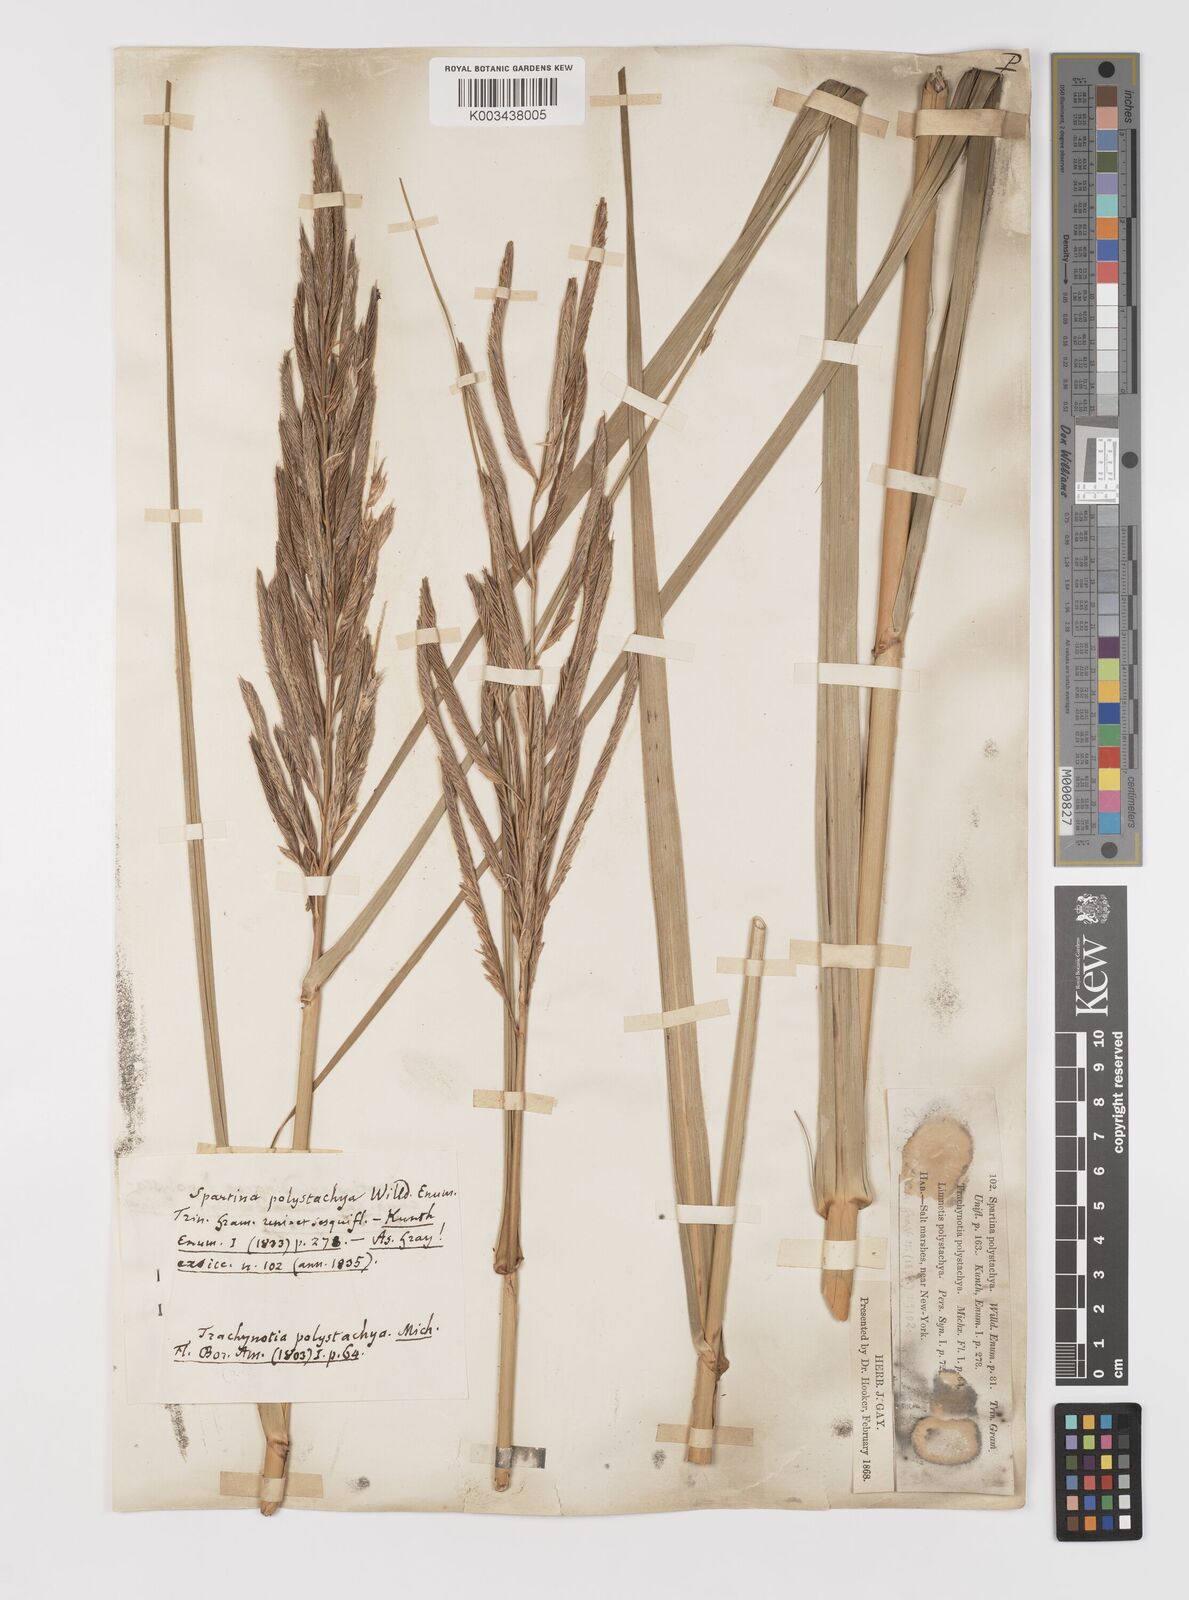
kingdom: Plantae
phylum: Tracheophyta
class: Liliopsida
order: Poales
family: Poaceae
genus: Sporobolus
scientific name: Sporobolus cynosuroides
